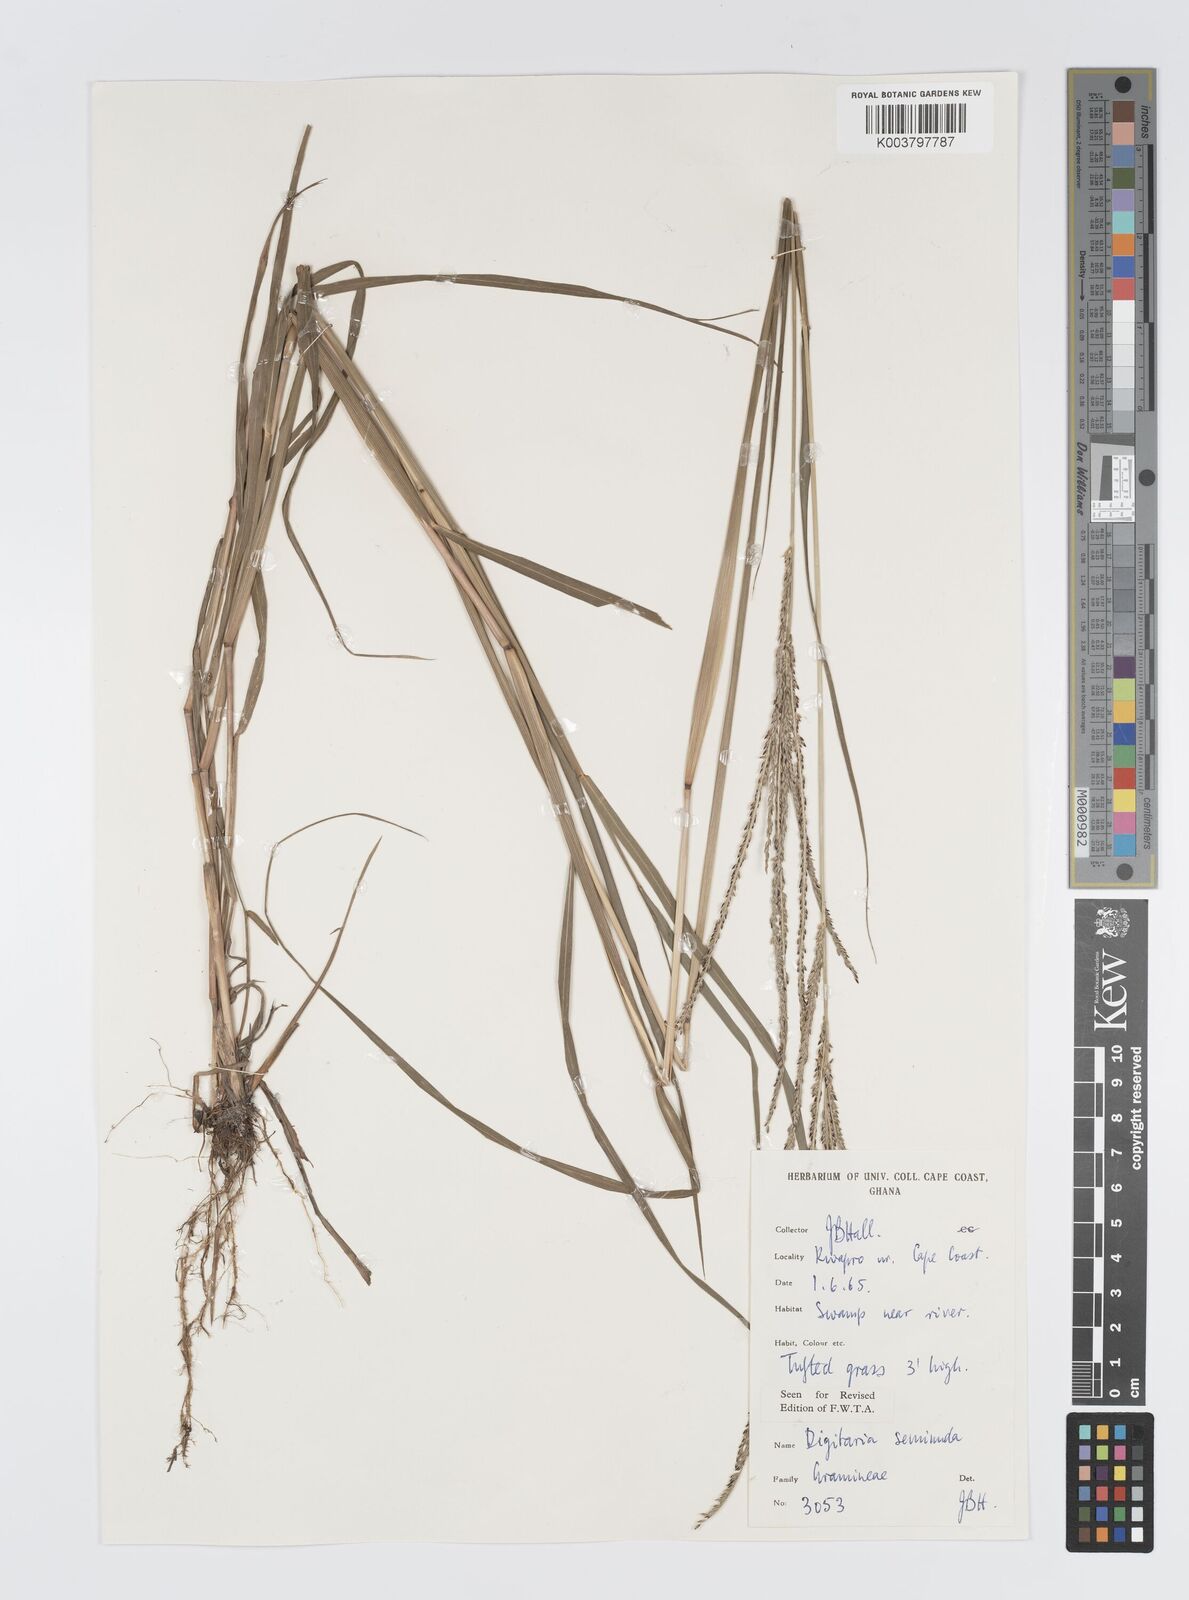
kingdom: Plantae
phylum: Tracheophyta
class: Liliopsida
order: Poales
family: Poaceae
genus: Digitaria
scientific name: Digitaria atrofusca
